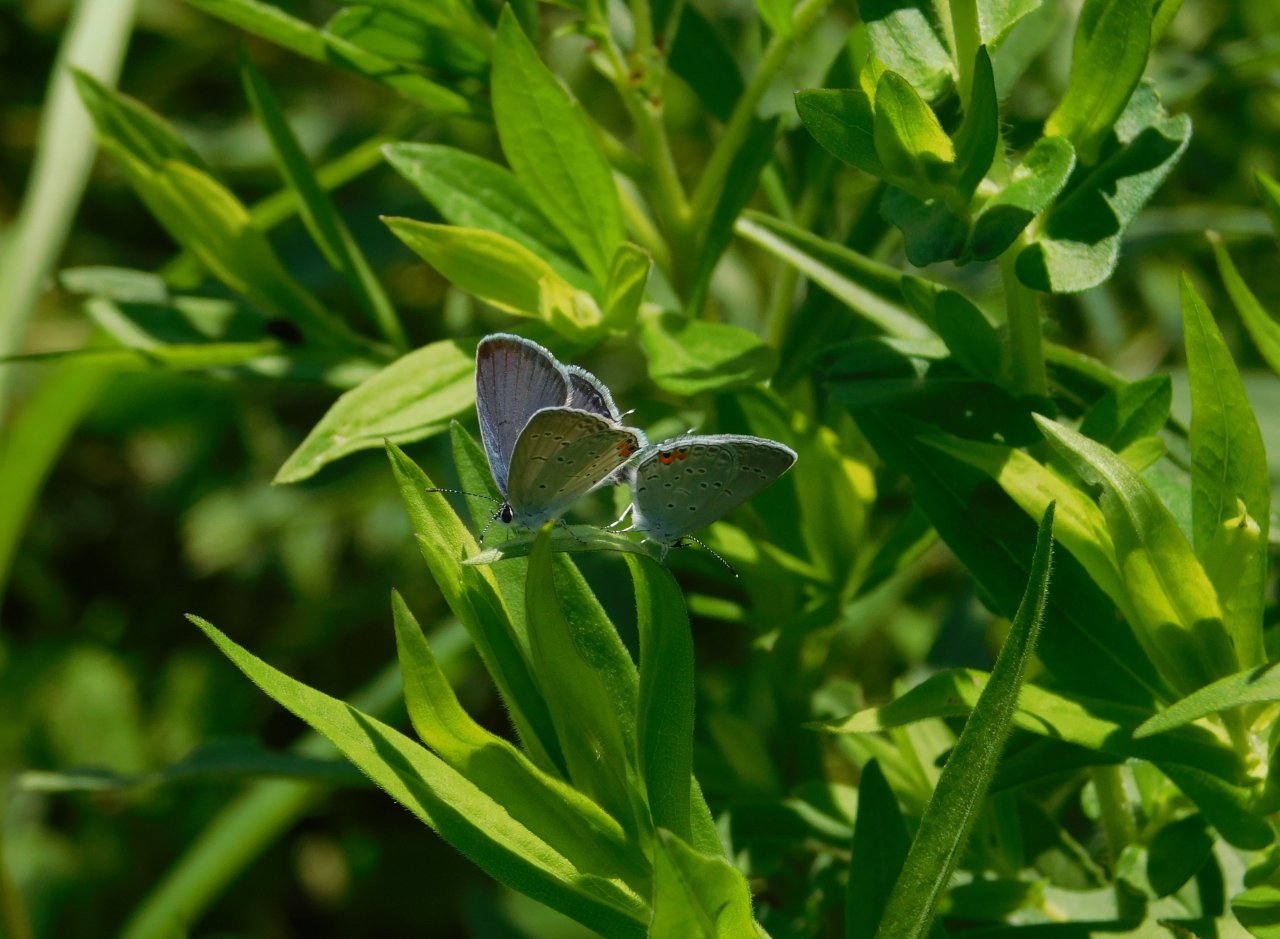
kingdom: Animalia
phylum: Arthropoda
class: Insecta
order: Lepidoptera
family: Lycaenidae
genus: Elkalyce
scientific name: Elkalyce comyntas
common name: Eastern Tailed-Blue
